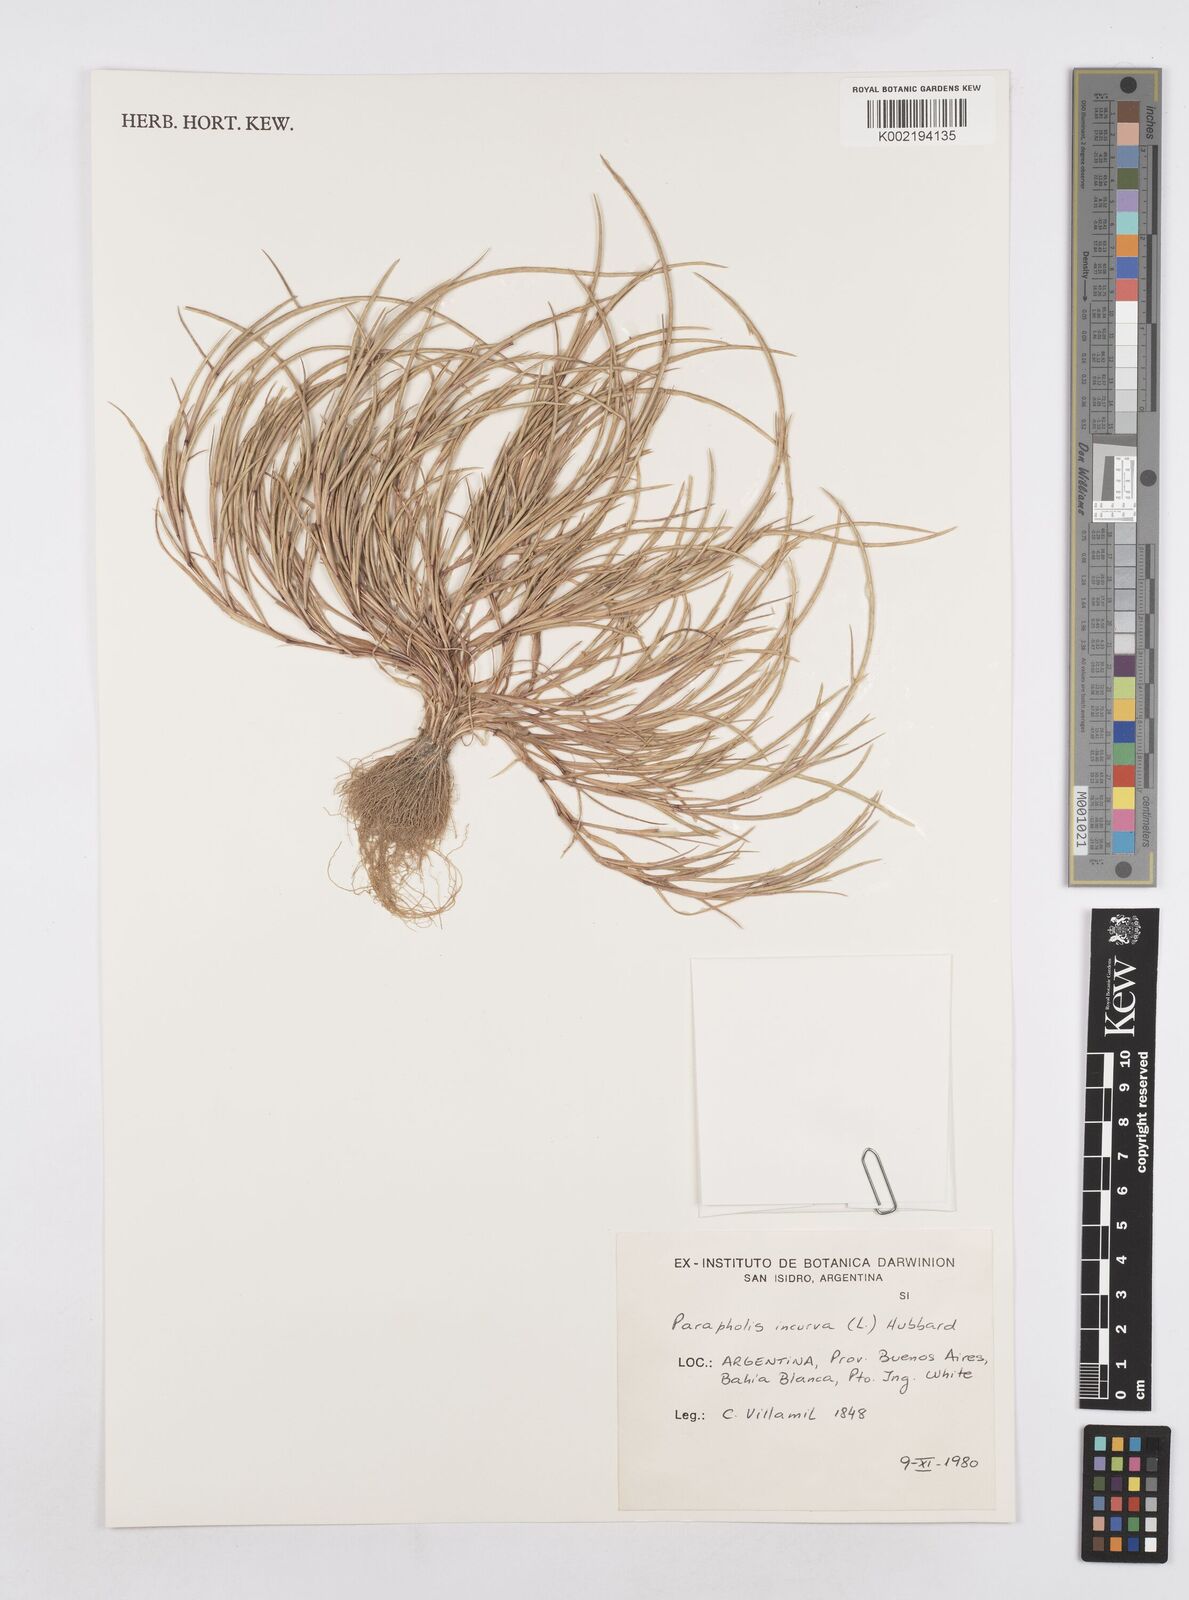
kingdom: Plantae
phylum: Tracheophyta
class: Liliopsida
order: Poales
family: Poaceae
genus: Parapholis
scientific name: Parapholis incurva
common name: Curved sicklegrass
